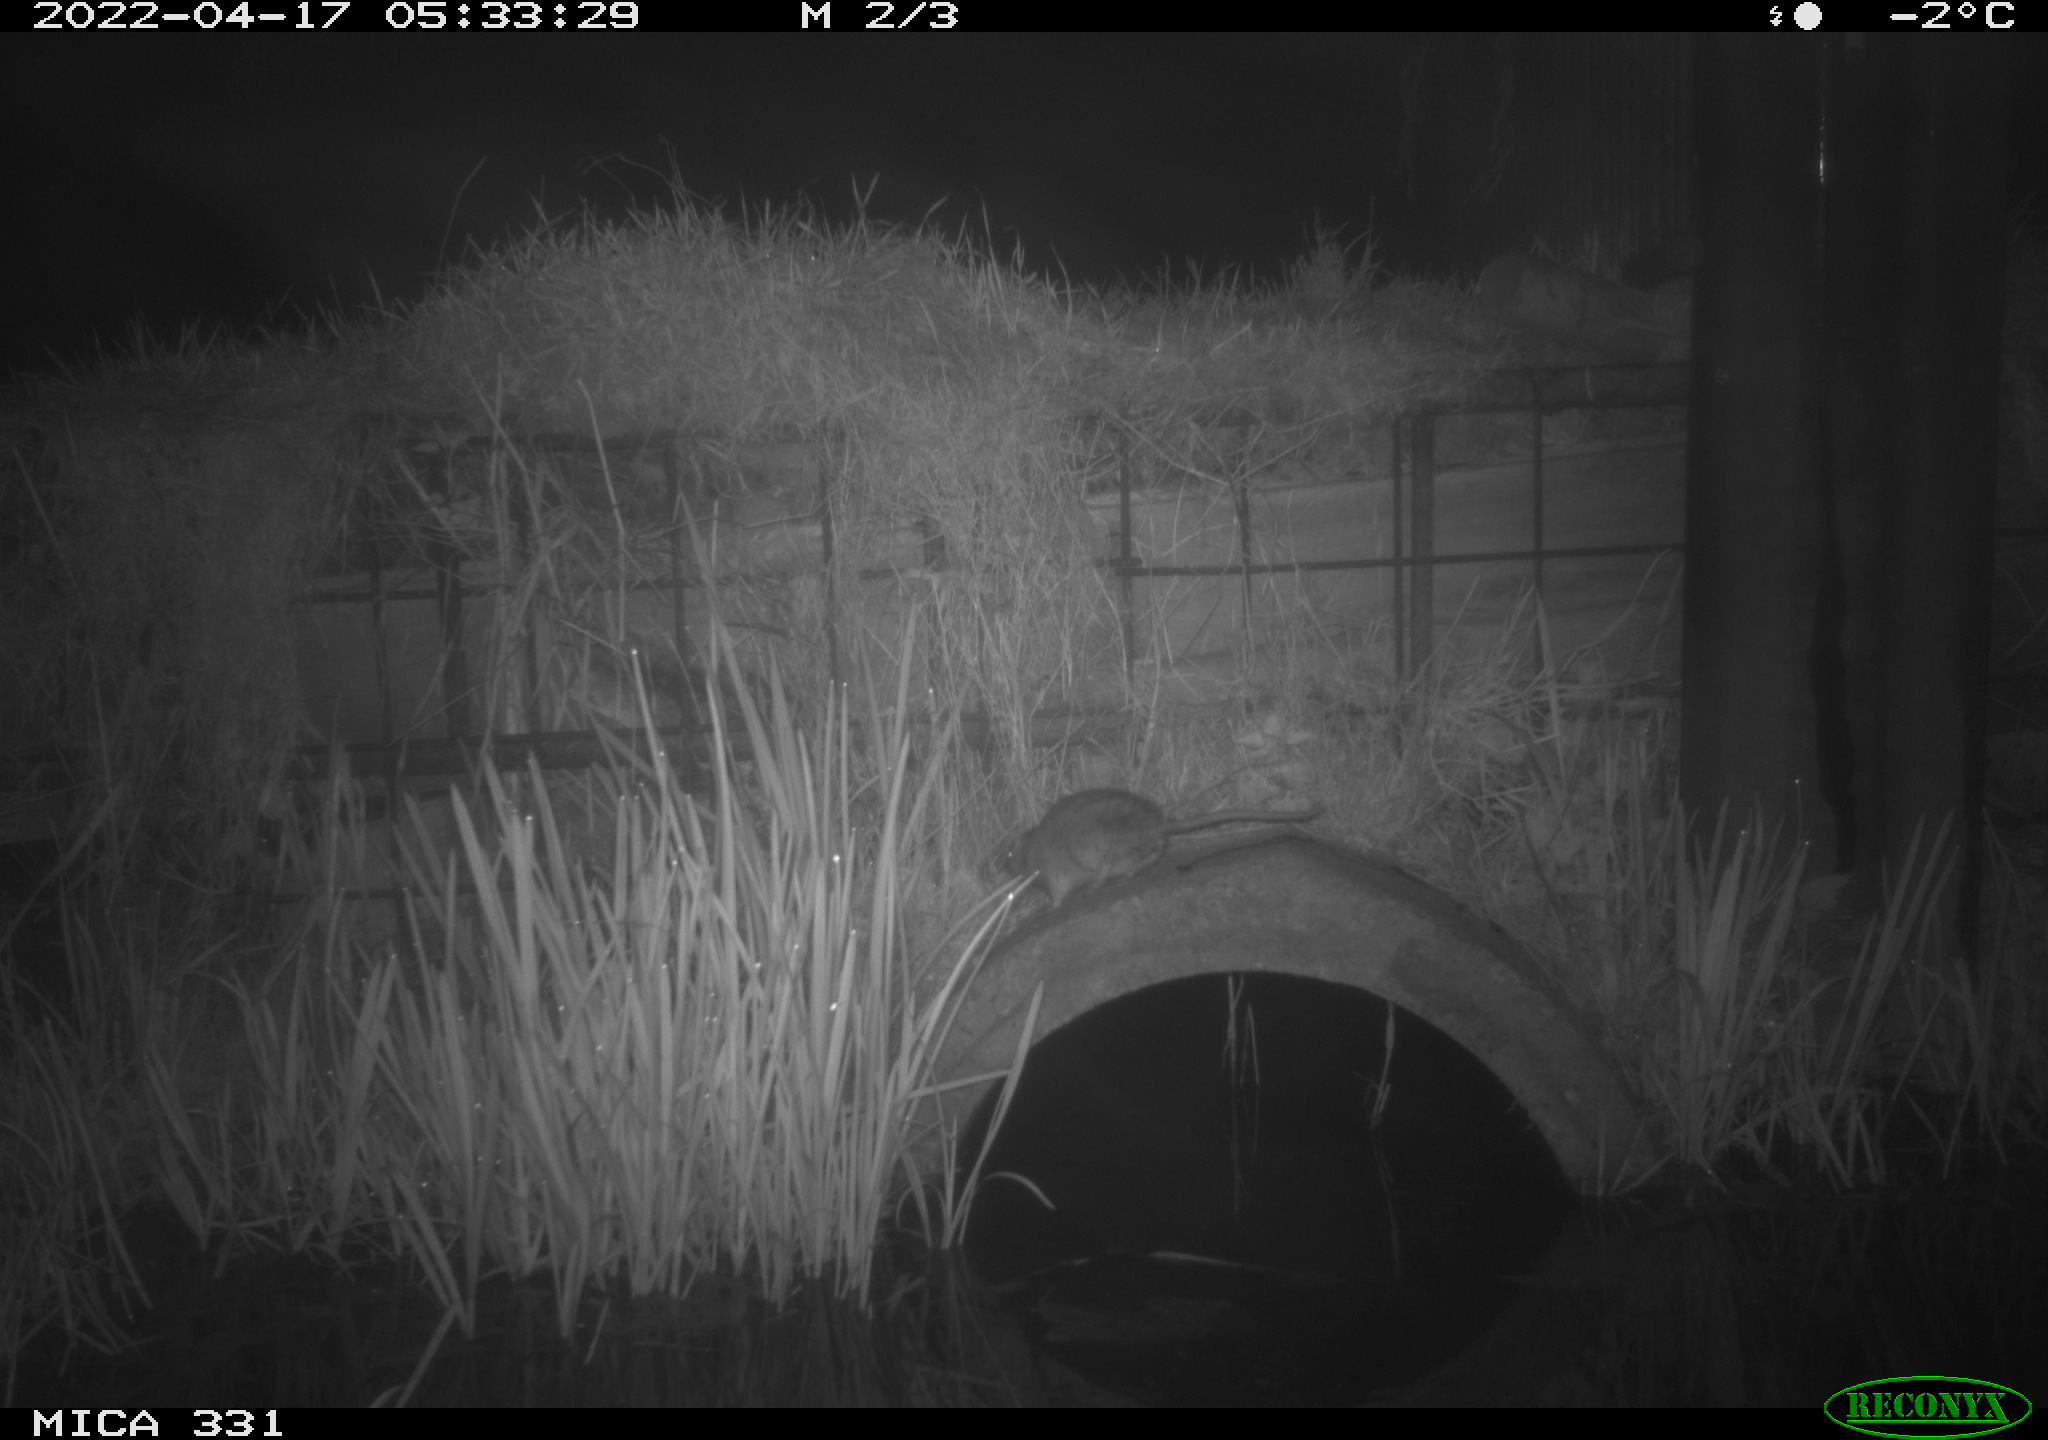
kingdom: Animalia
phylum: Chordata
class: Mammalia
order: Rodentia
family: Muridae
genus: Rattus
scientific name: Rattus norvegicus
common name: Brown rat
